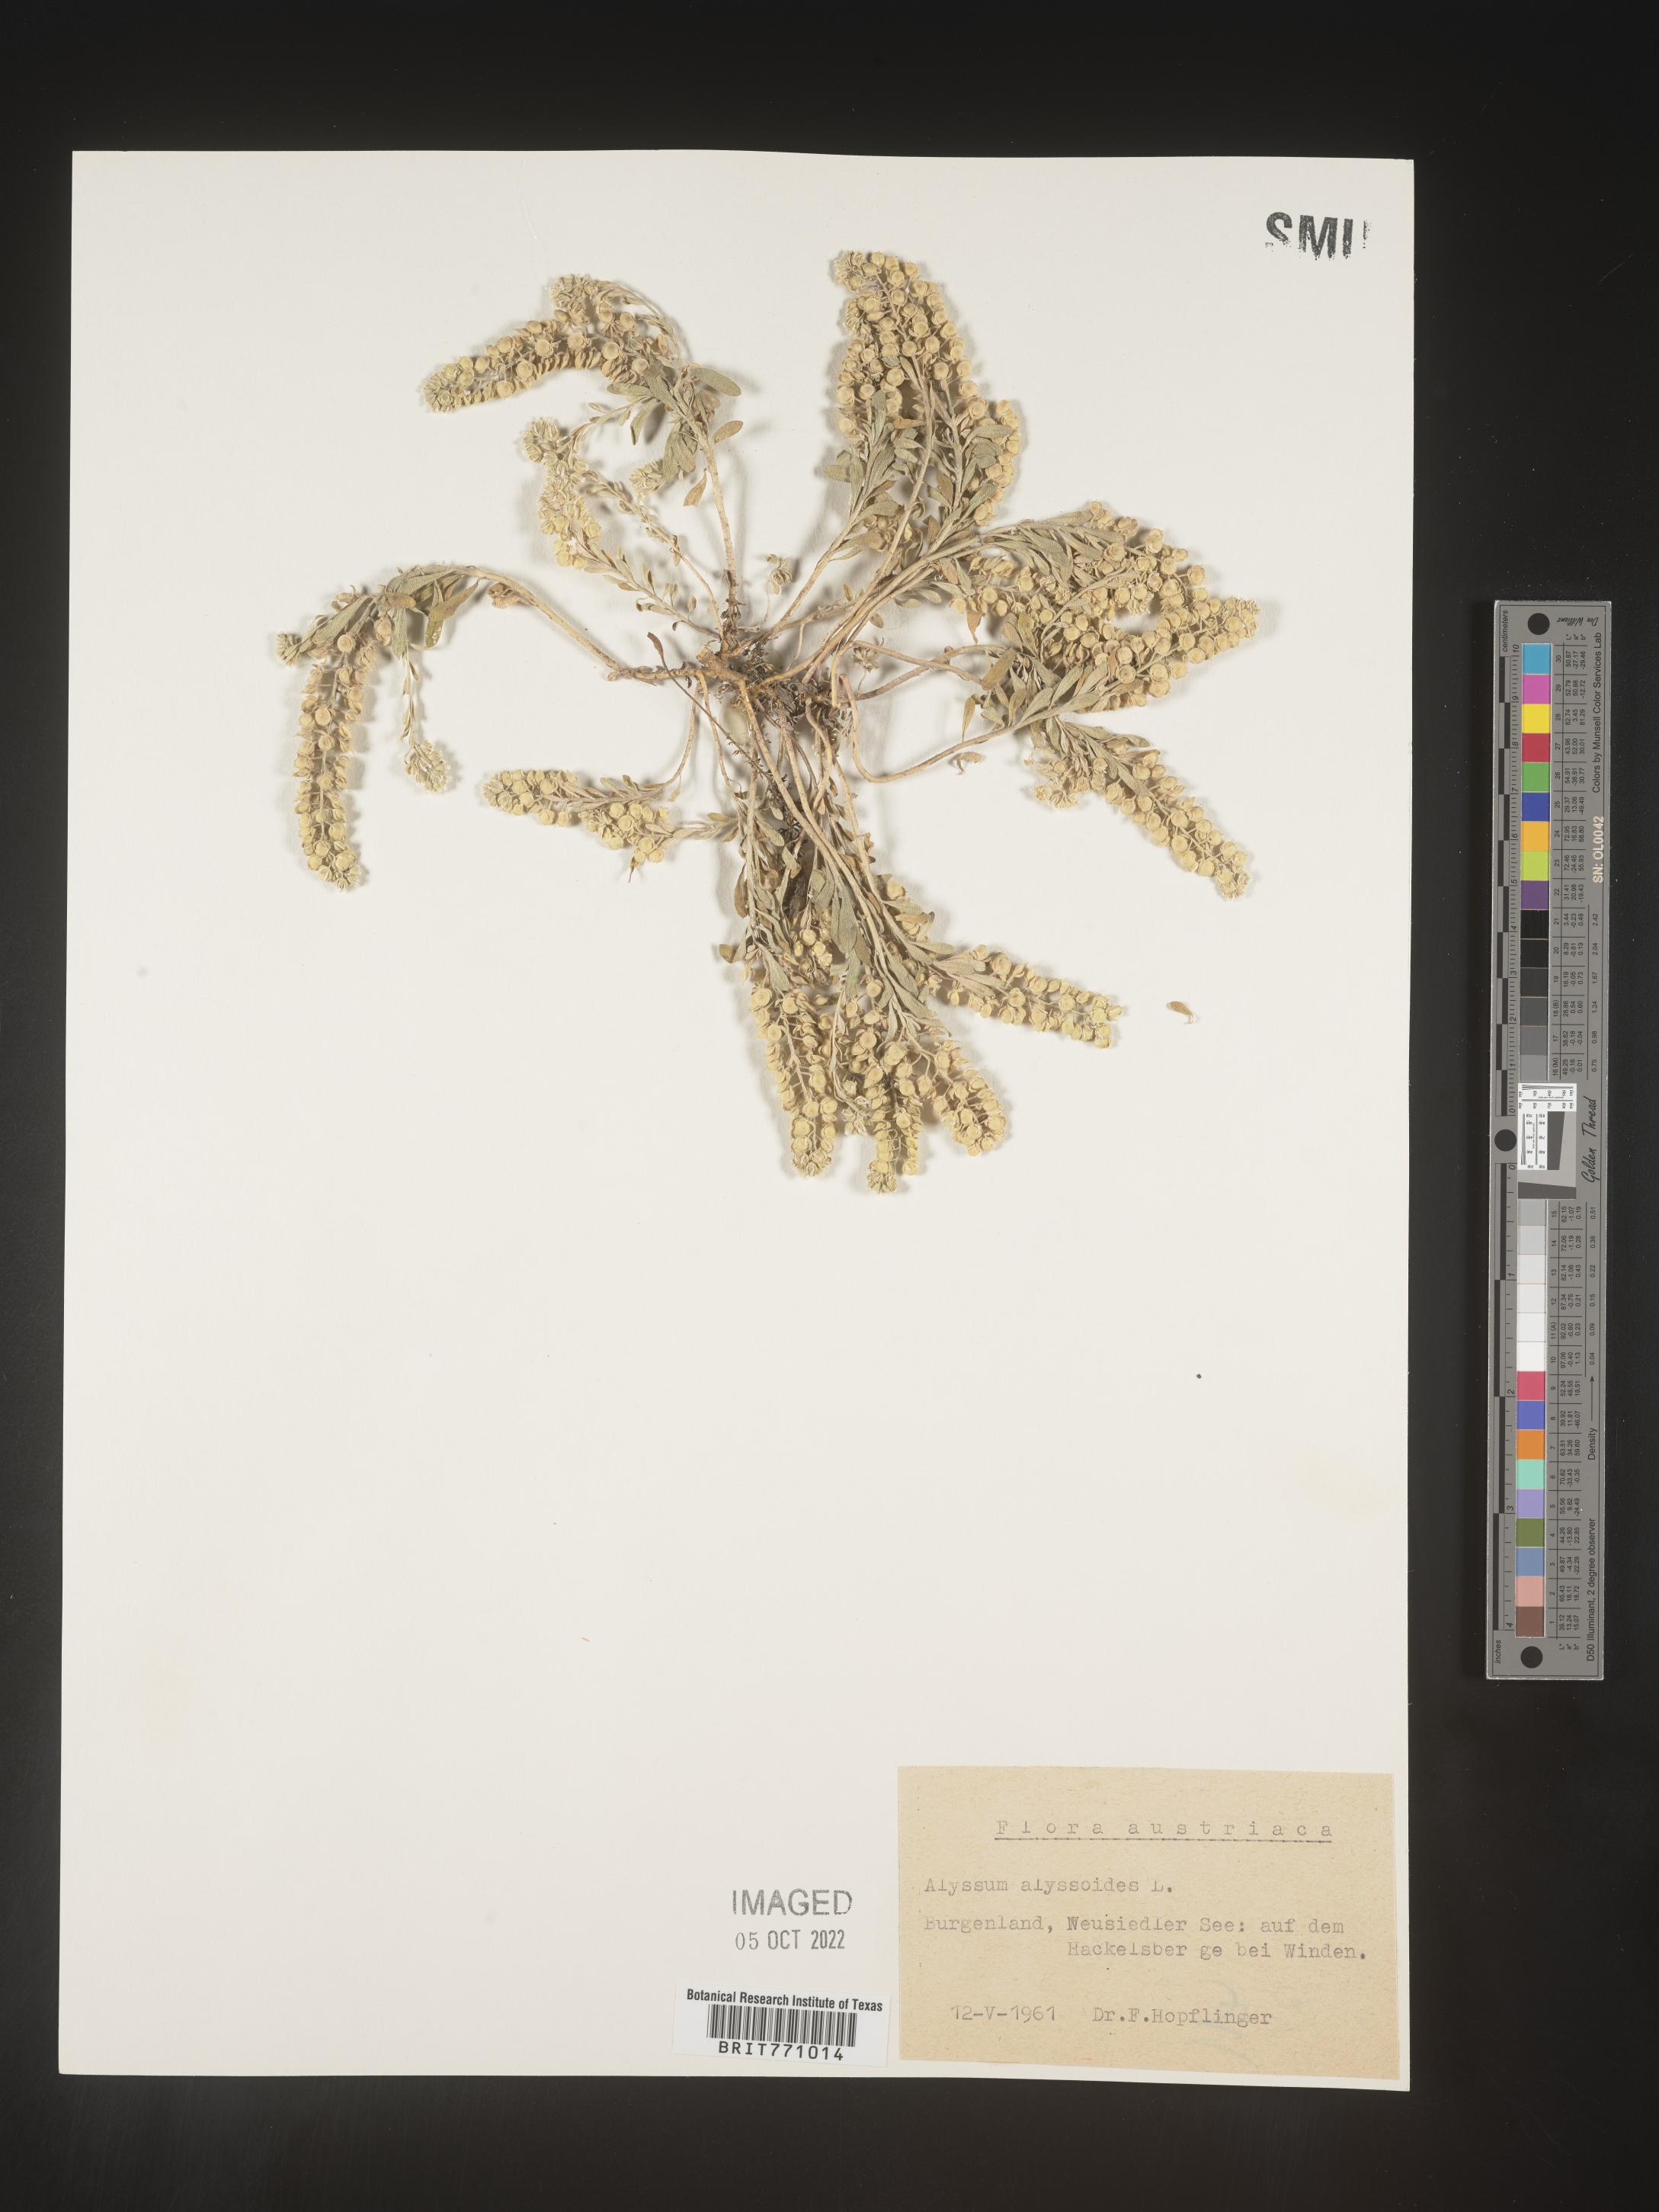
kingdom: Plantae
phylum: Tracheophyta
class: Magnoliopsida
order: Brassicales
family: Brassicaceae
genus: Alyssum
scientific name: Alyssum
